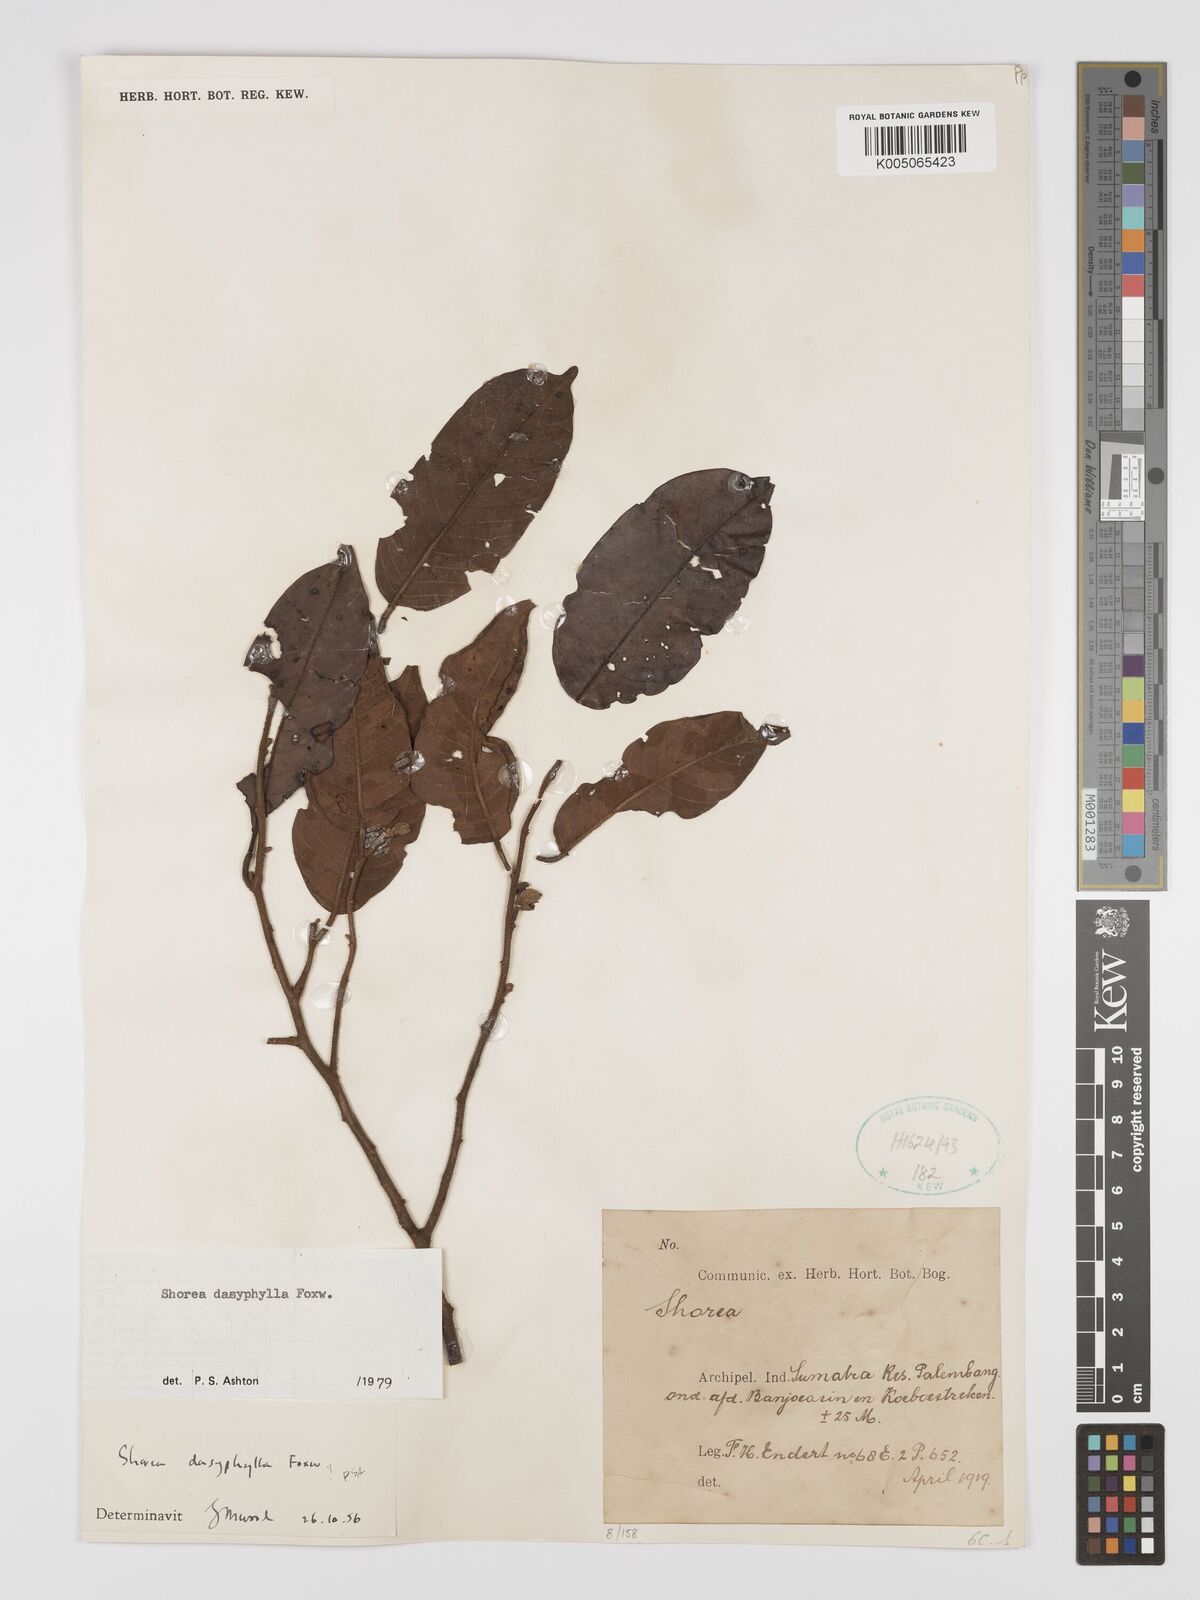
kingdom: Plantae
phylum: Tracheophyta
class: Magnoliopsida
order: Malvales
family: Dipterocarpaceae
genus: Shorea
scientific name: Shorea dasyphylla
